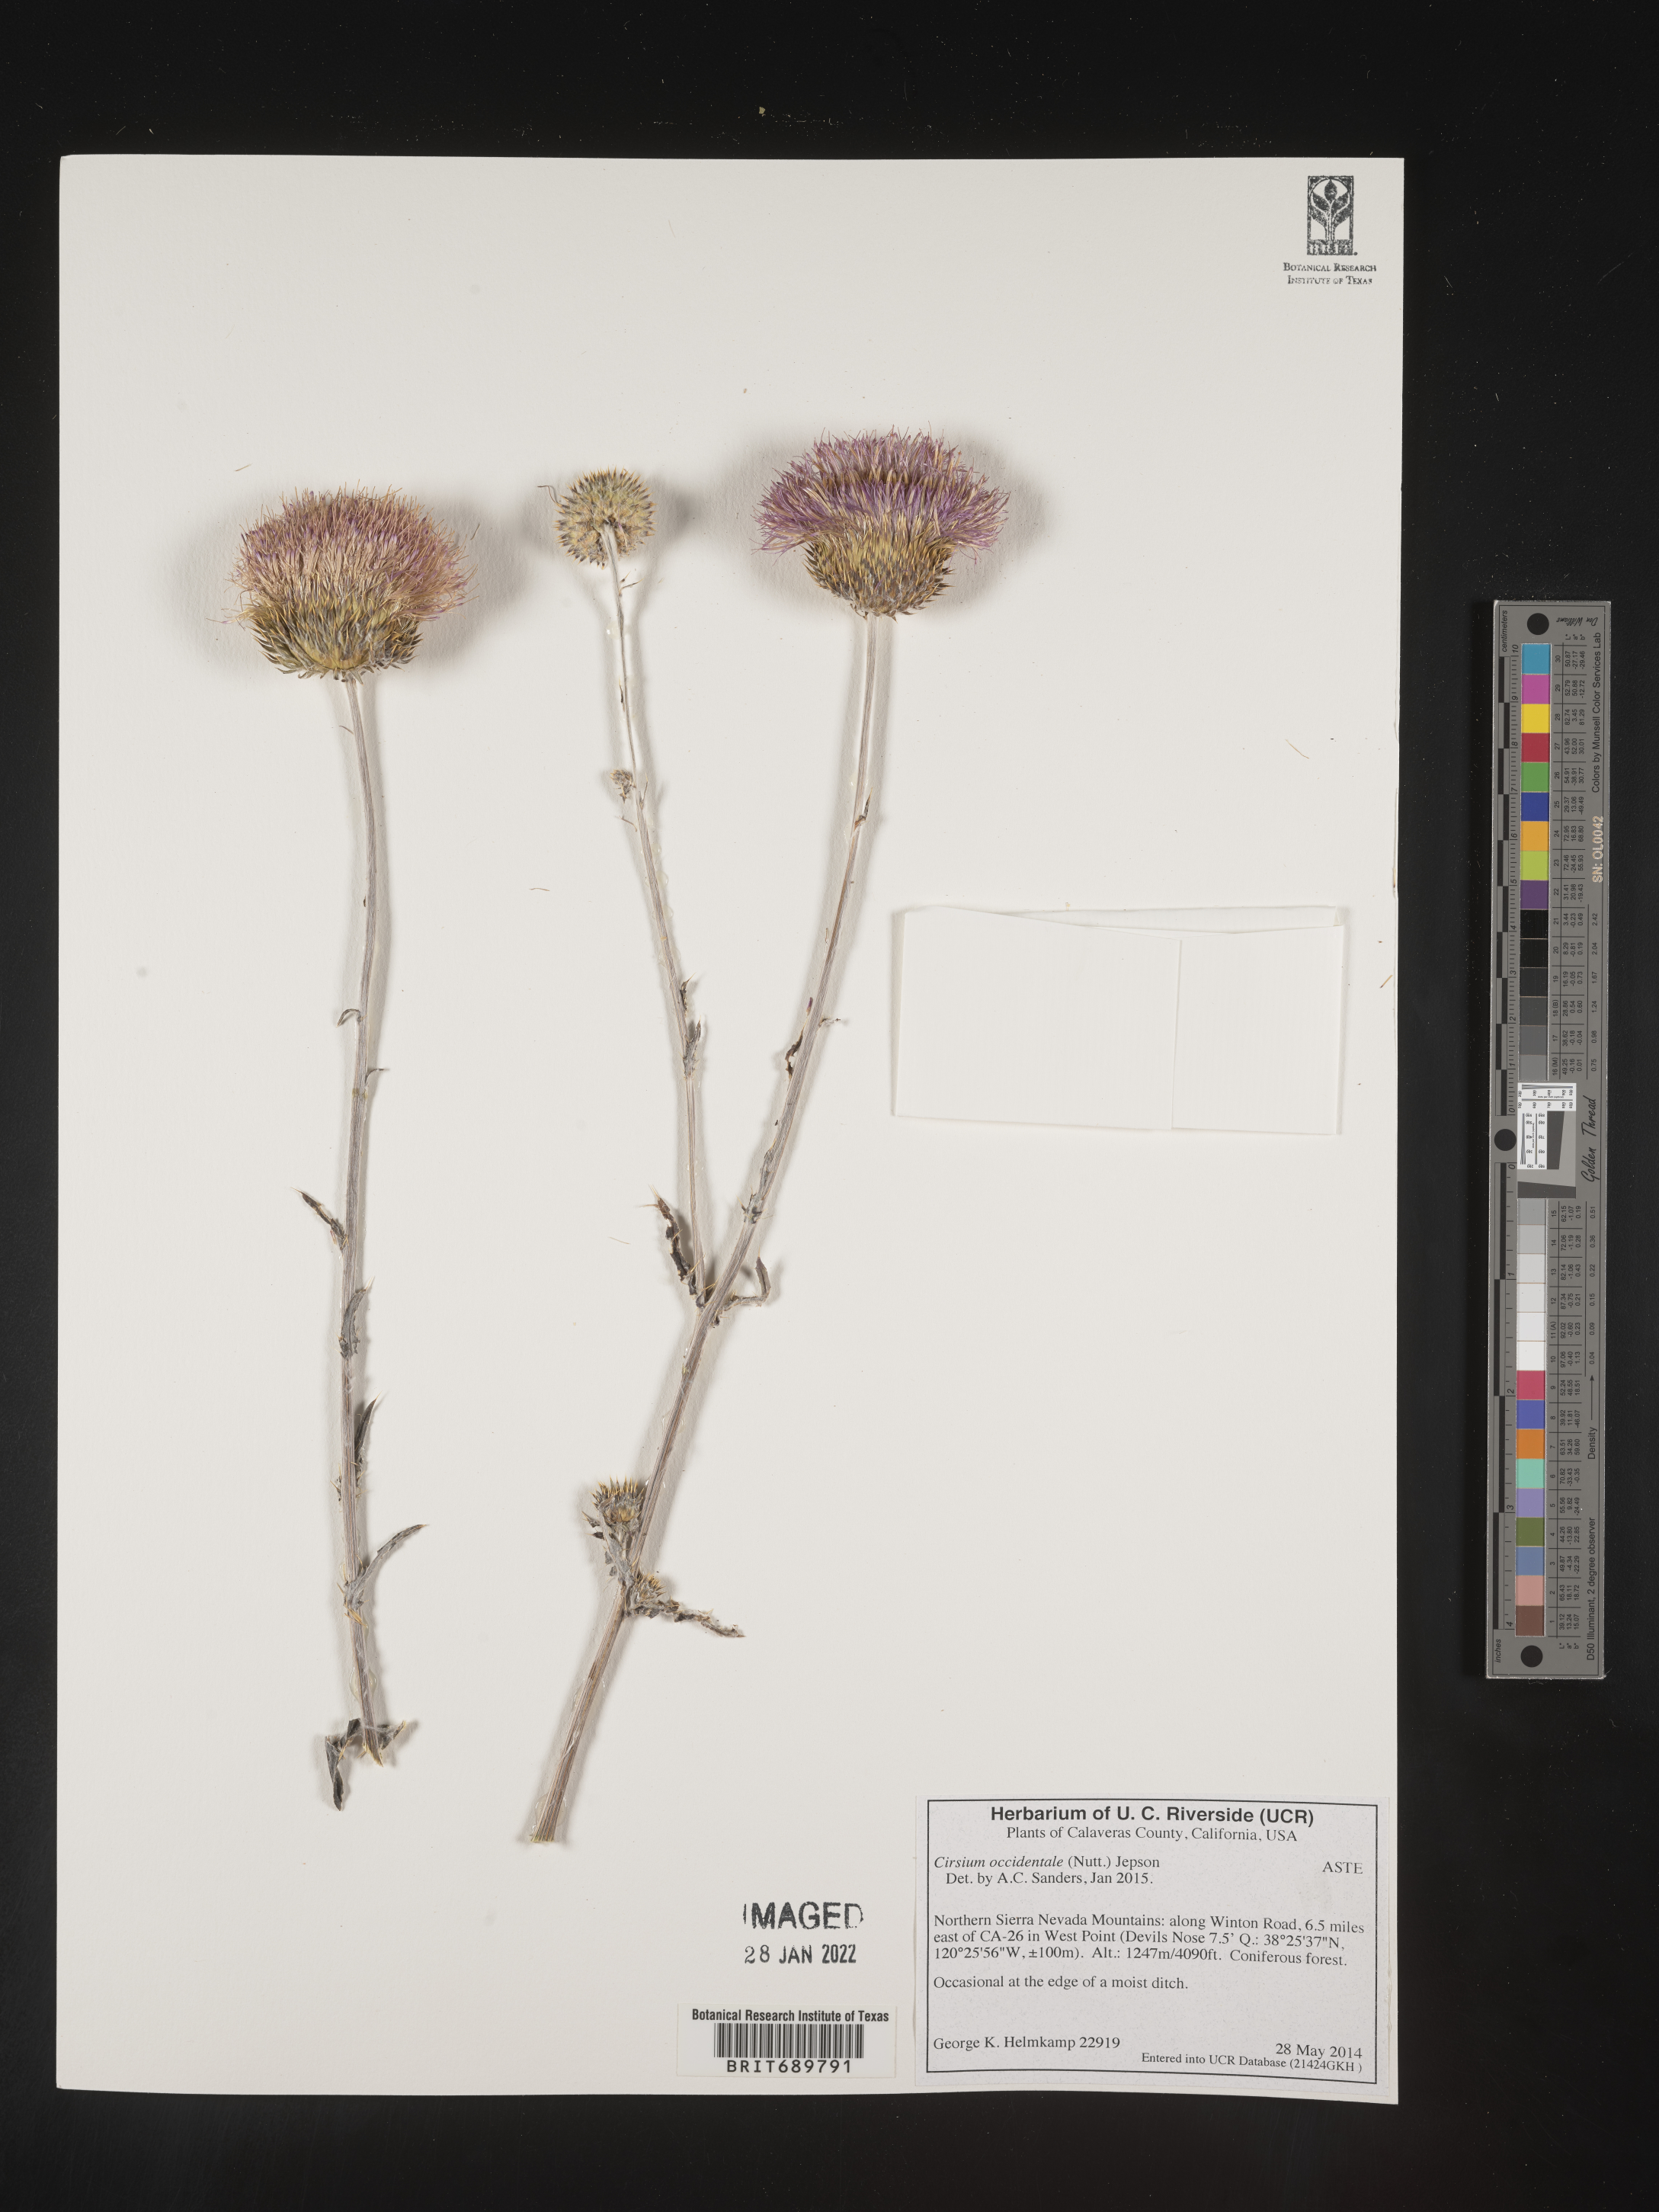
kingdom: Plantae
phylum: Tracheophyta
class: Magnoliopsida
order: Asterales
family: Asteraceae
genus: Cirsium
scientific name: Cirsium occidentale
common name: Western thistle
